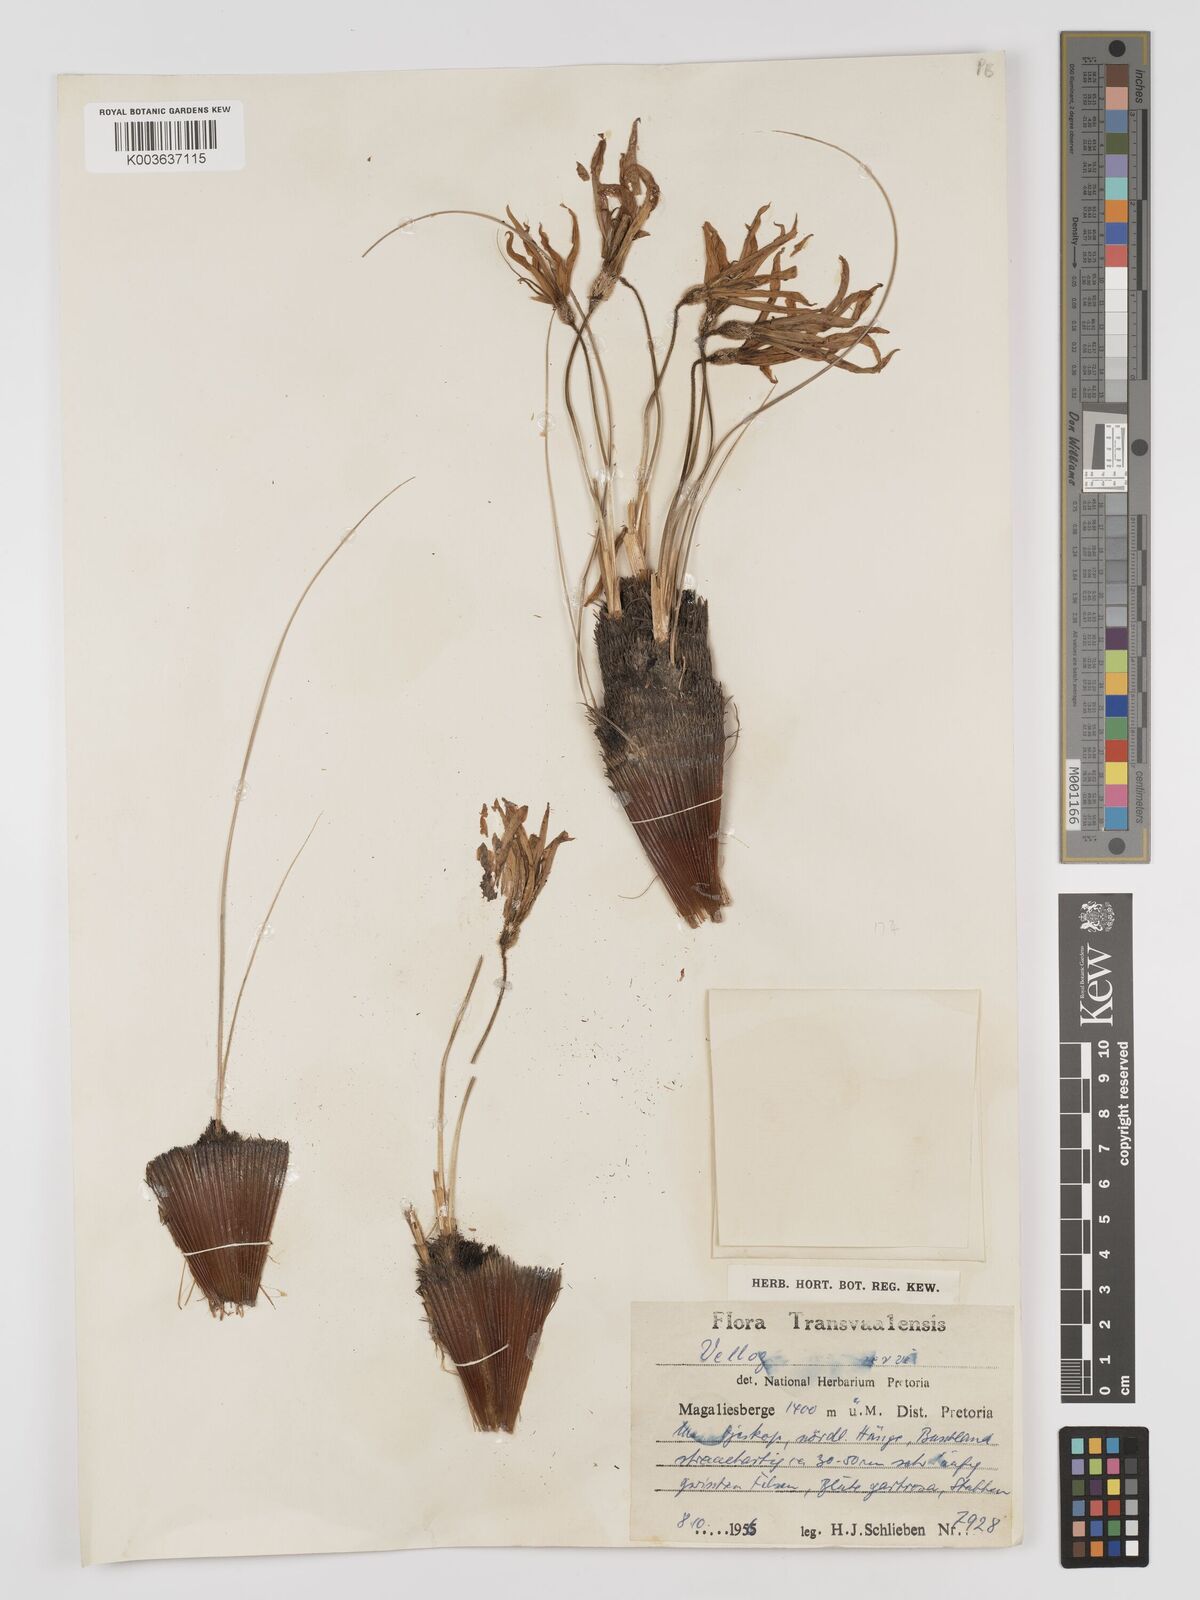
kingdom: Plantae
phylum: Tracheophyta
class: Liliopsida
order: Pandanales
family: Velloziaceae
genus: Xerophyta
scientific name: Xerophyta retinervis
